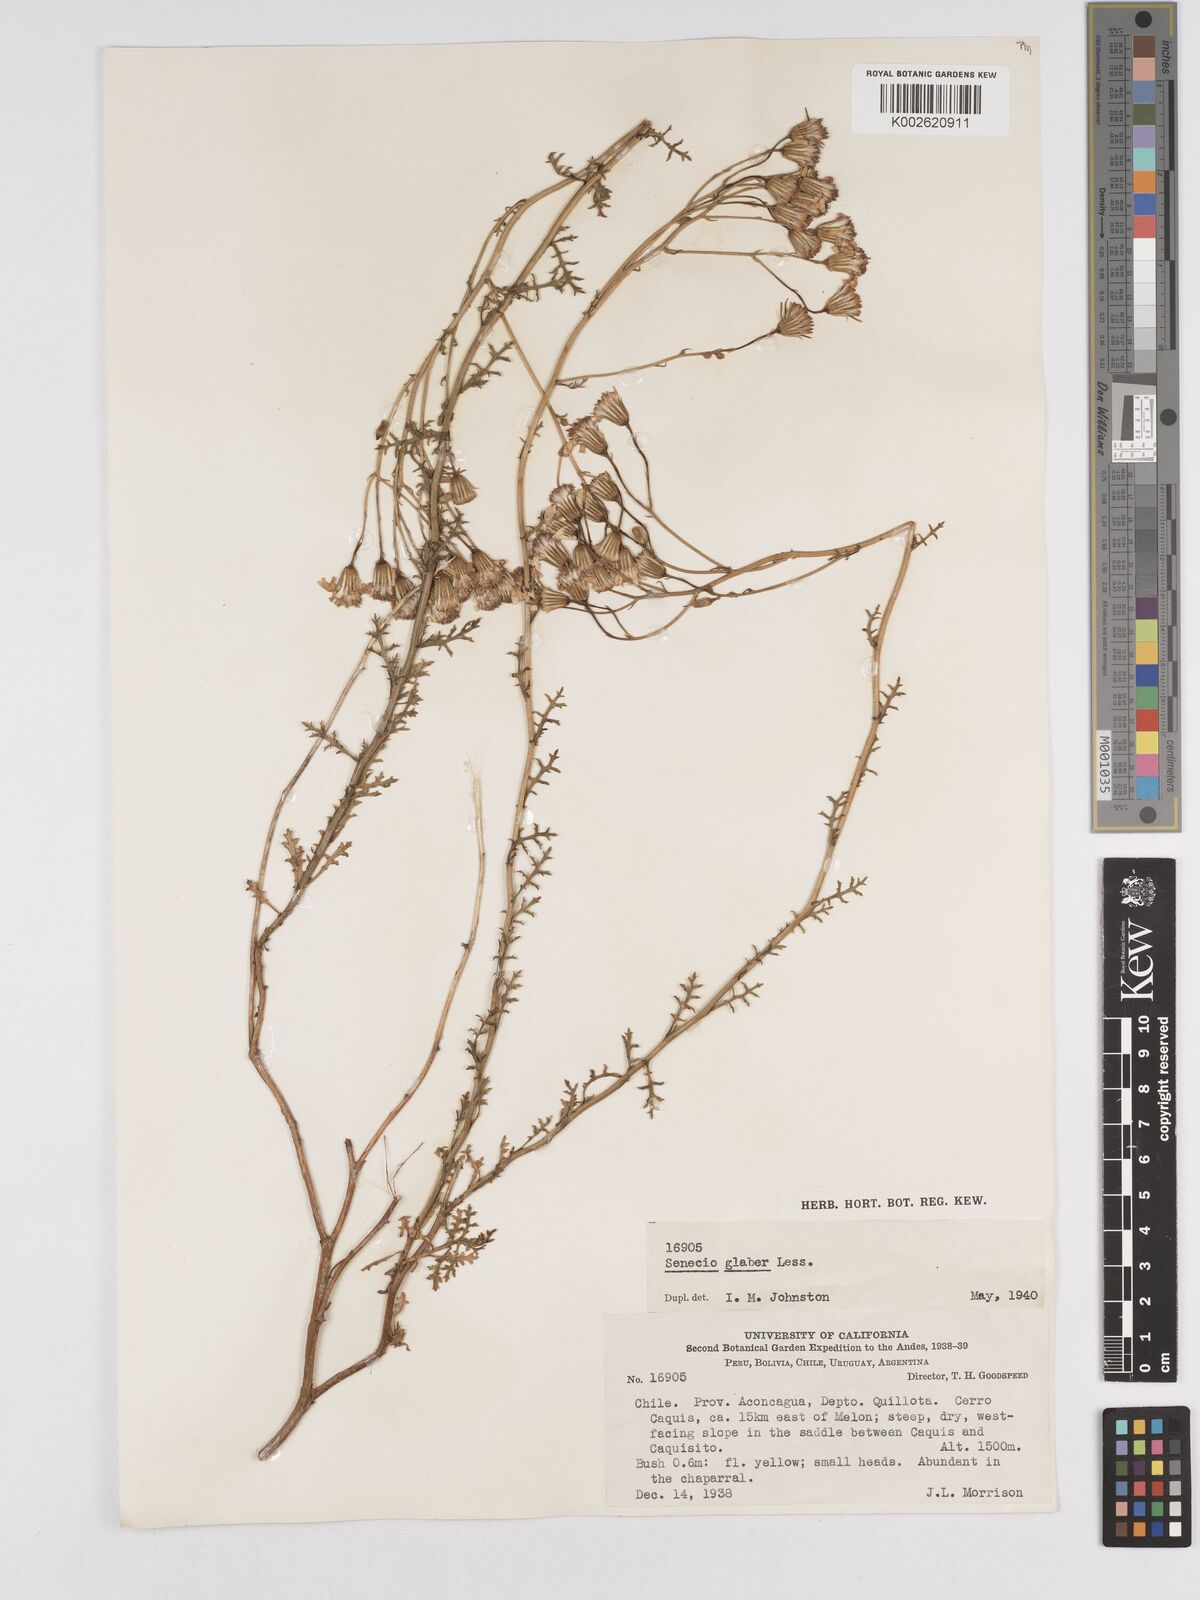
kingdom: Plantae
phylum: Tracheophyta
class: Magnoliopsida
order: Asterales
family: Asteraceae
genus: Senecio
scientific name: Senecio glaber
